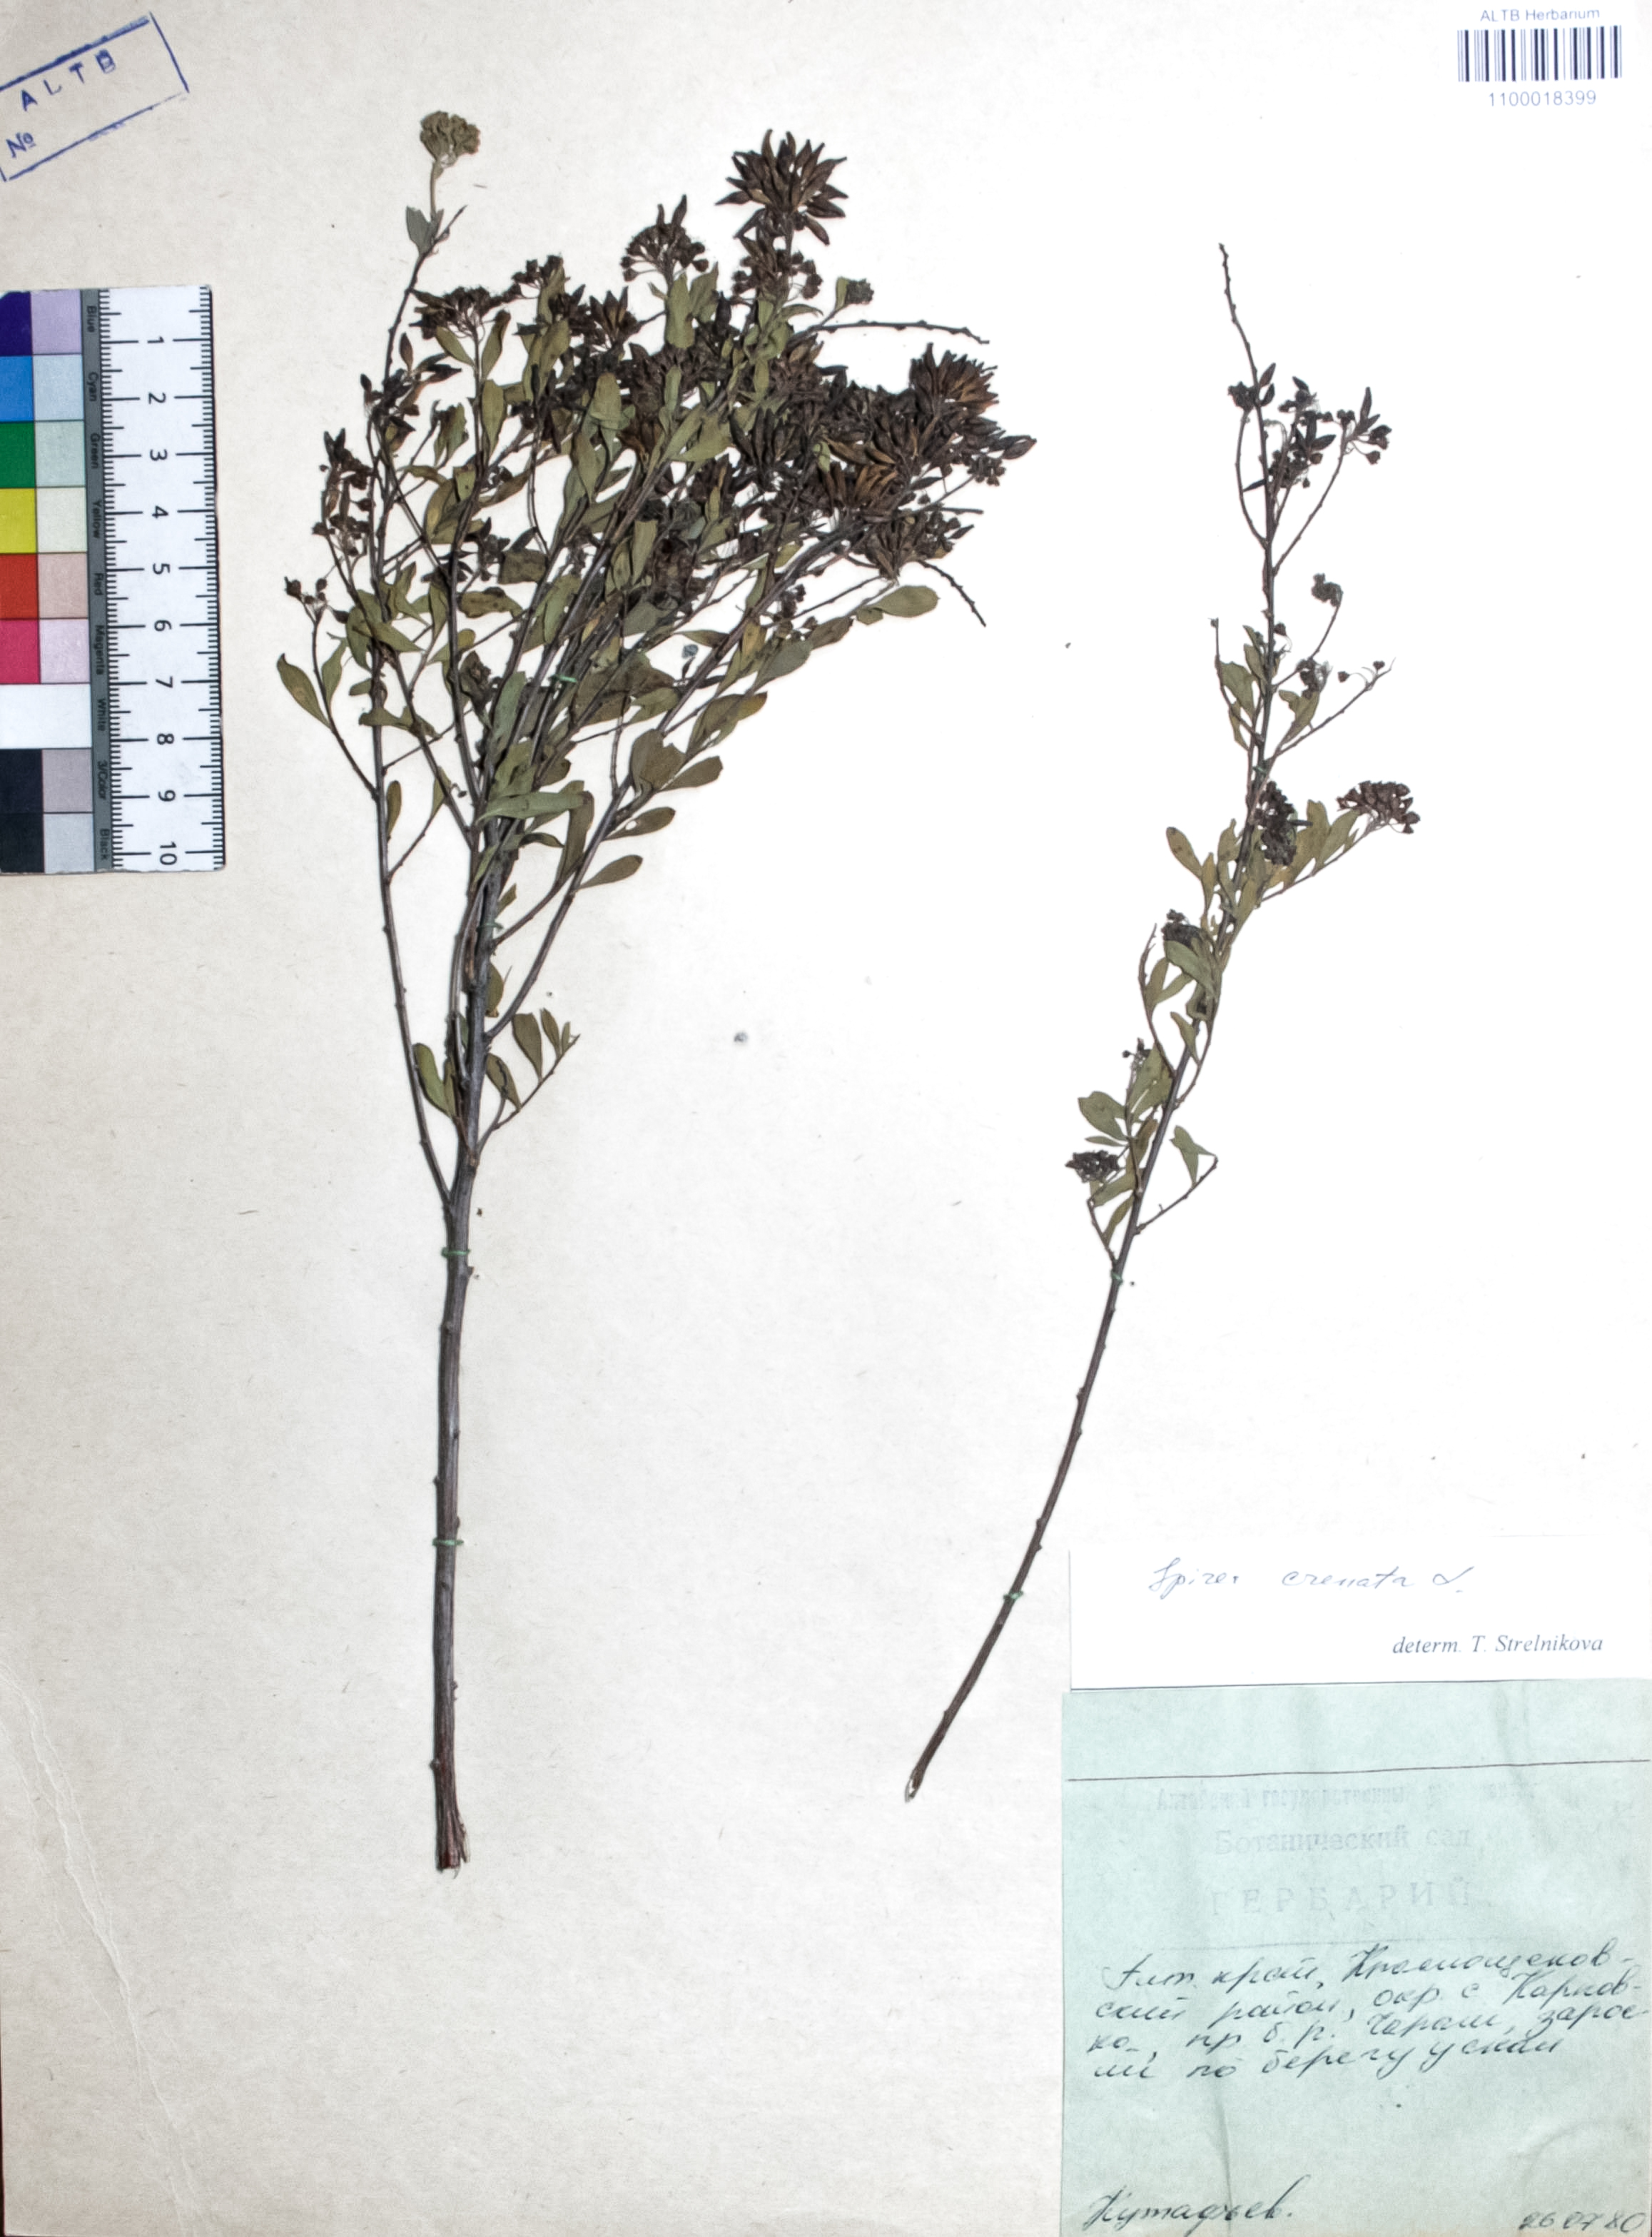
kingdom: Plantae
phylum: Tracheophyta
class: Magnoliopsida
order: Rosales
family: Rosaceae
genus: Spiraea
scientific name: Spiraea crenata
